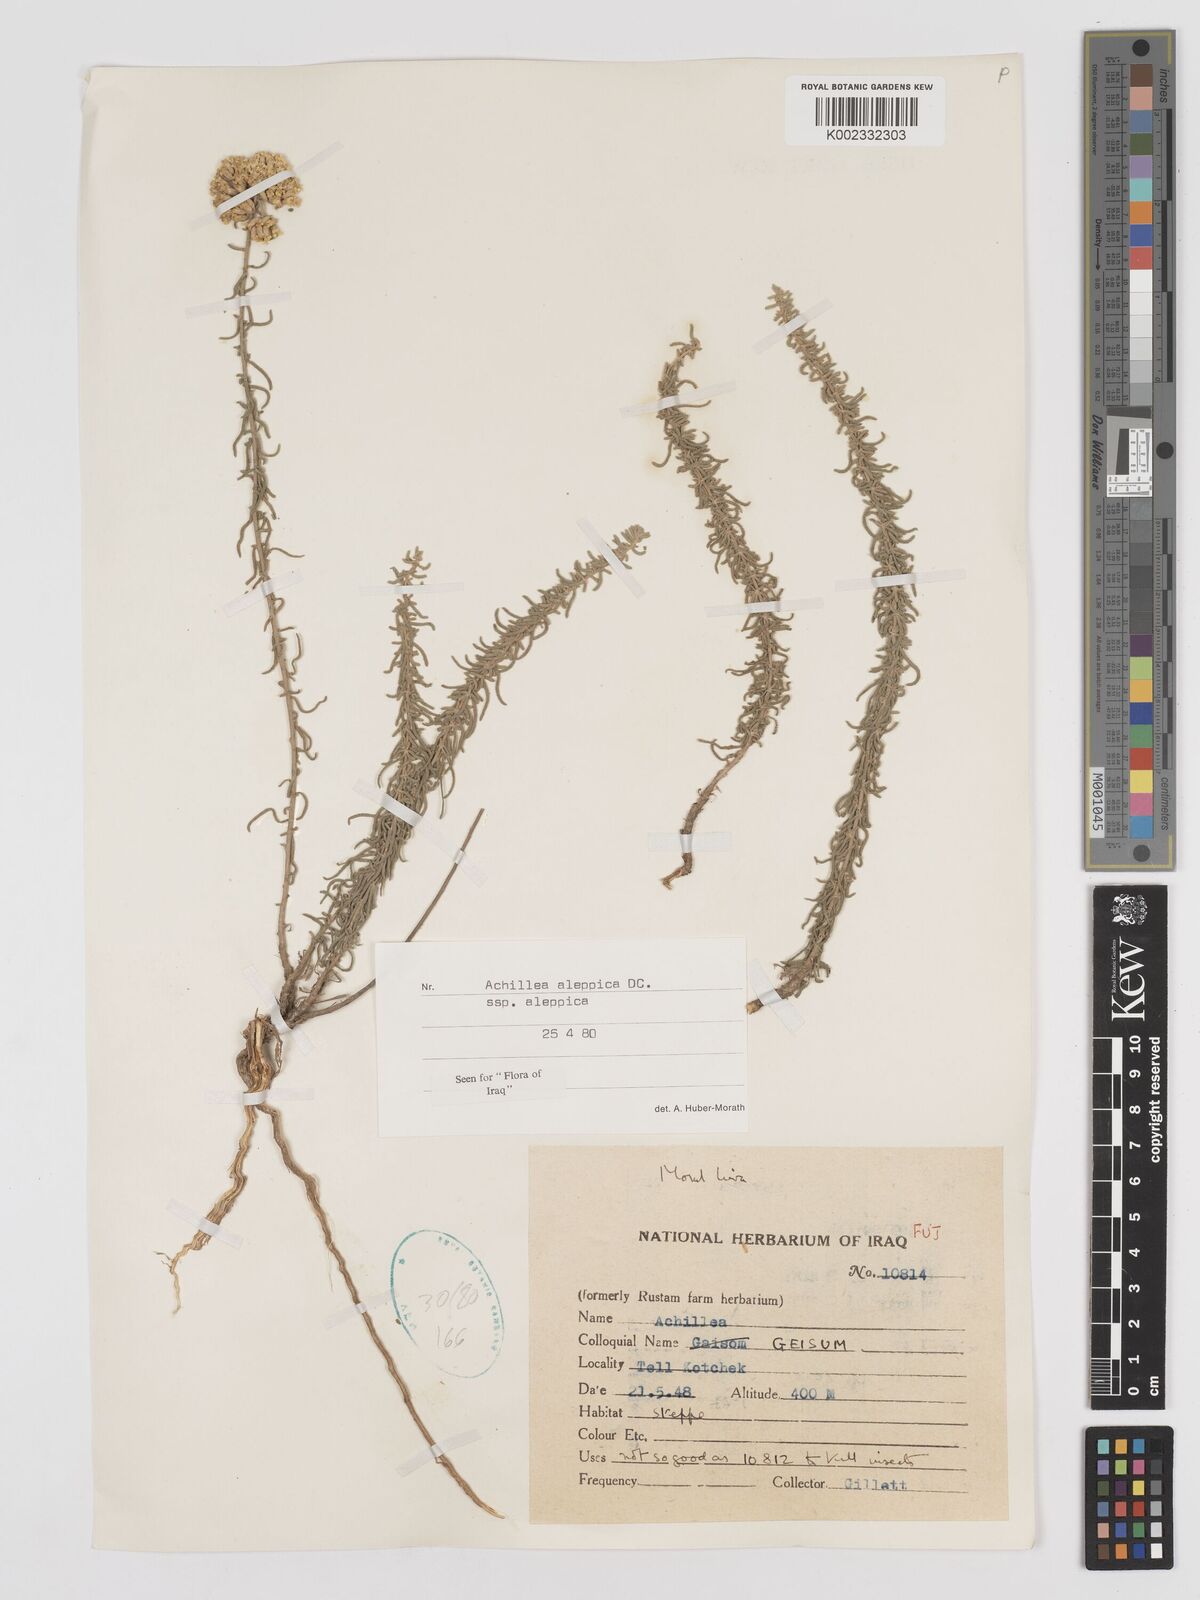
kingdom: Plantae
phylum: Tracheophyta
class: Magnoliopsida
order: Asterales
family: Asteraceae
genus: Achillea
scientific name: Achillea aleppica
